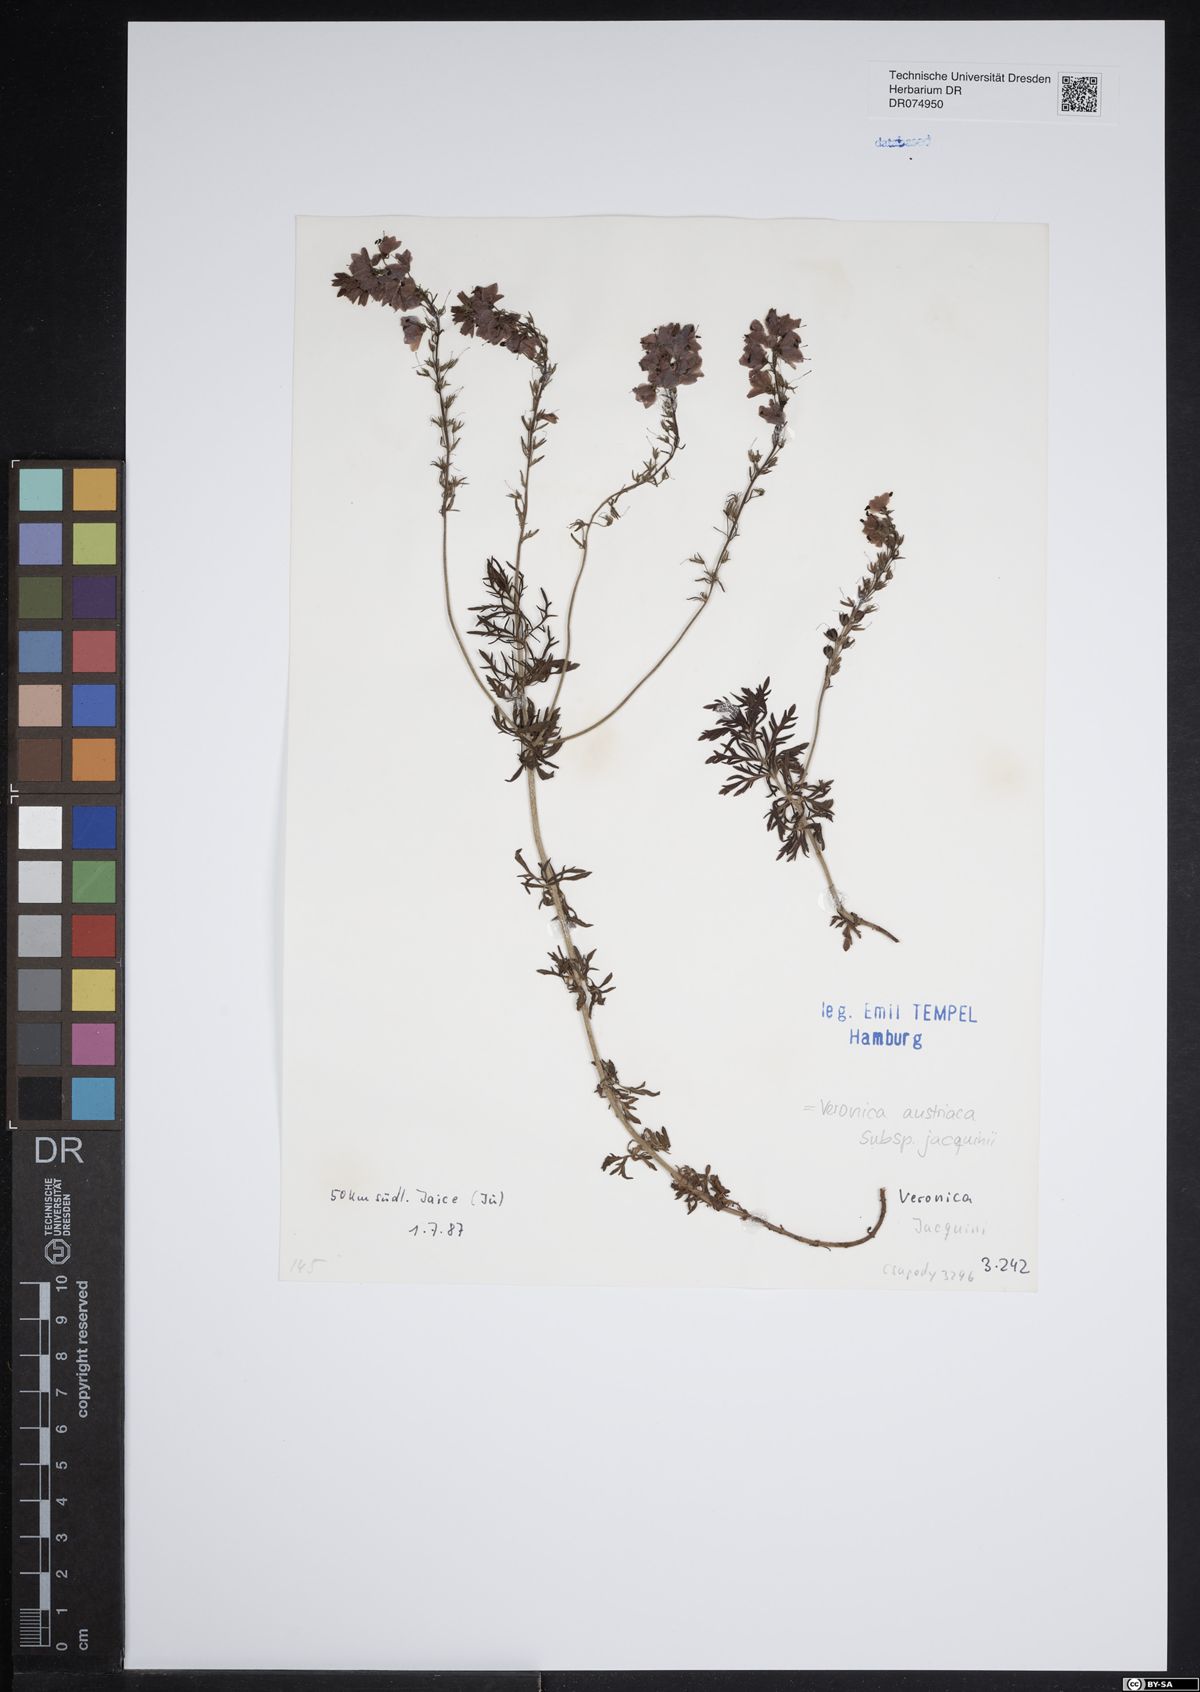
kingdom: Plantae
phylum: Tracheophyta
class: Magnoliopsida
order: Lamiales
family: Plantaginaceae
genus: Veronica
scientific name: Veronica austriaca
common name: Large speedwell
